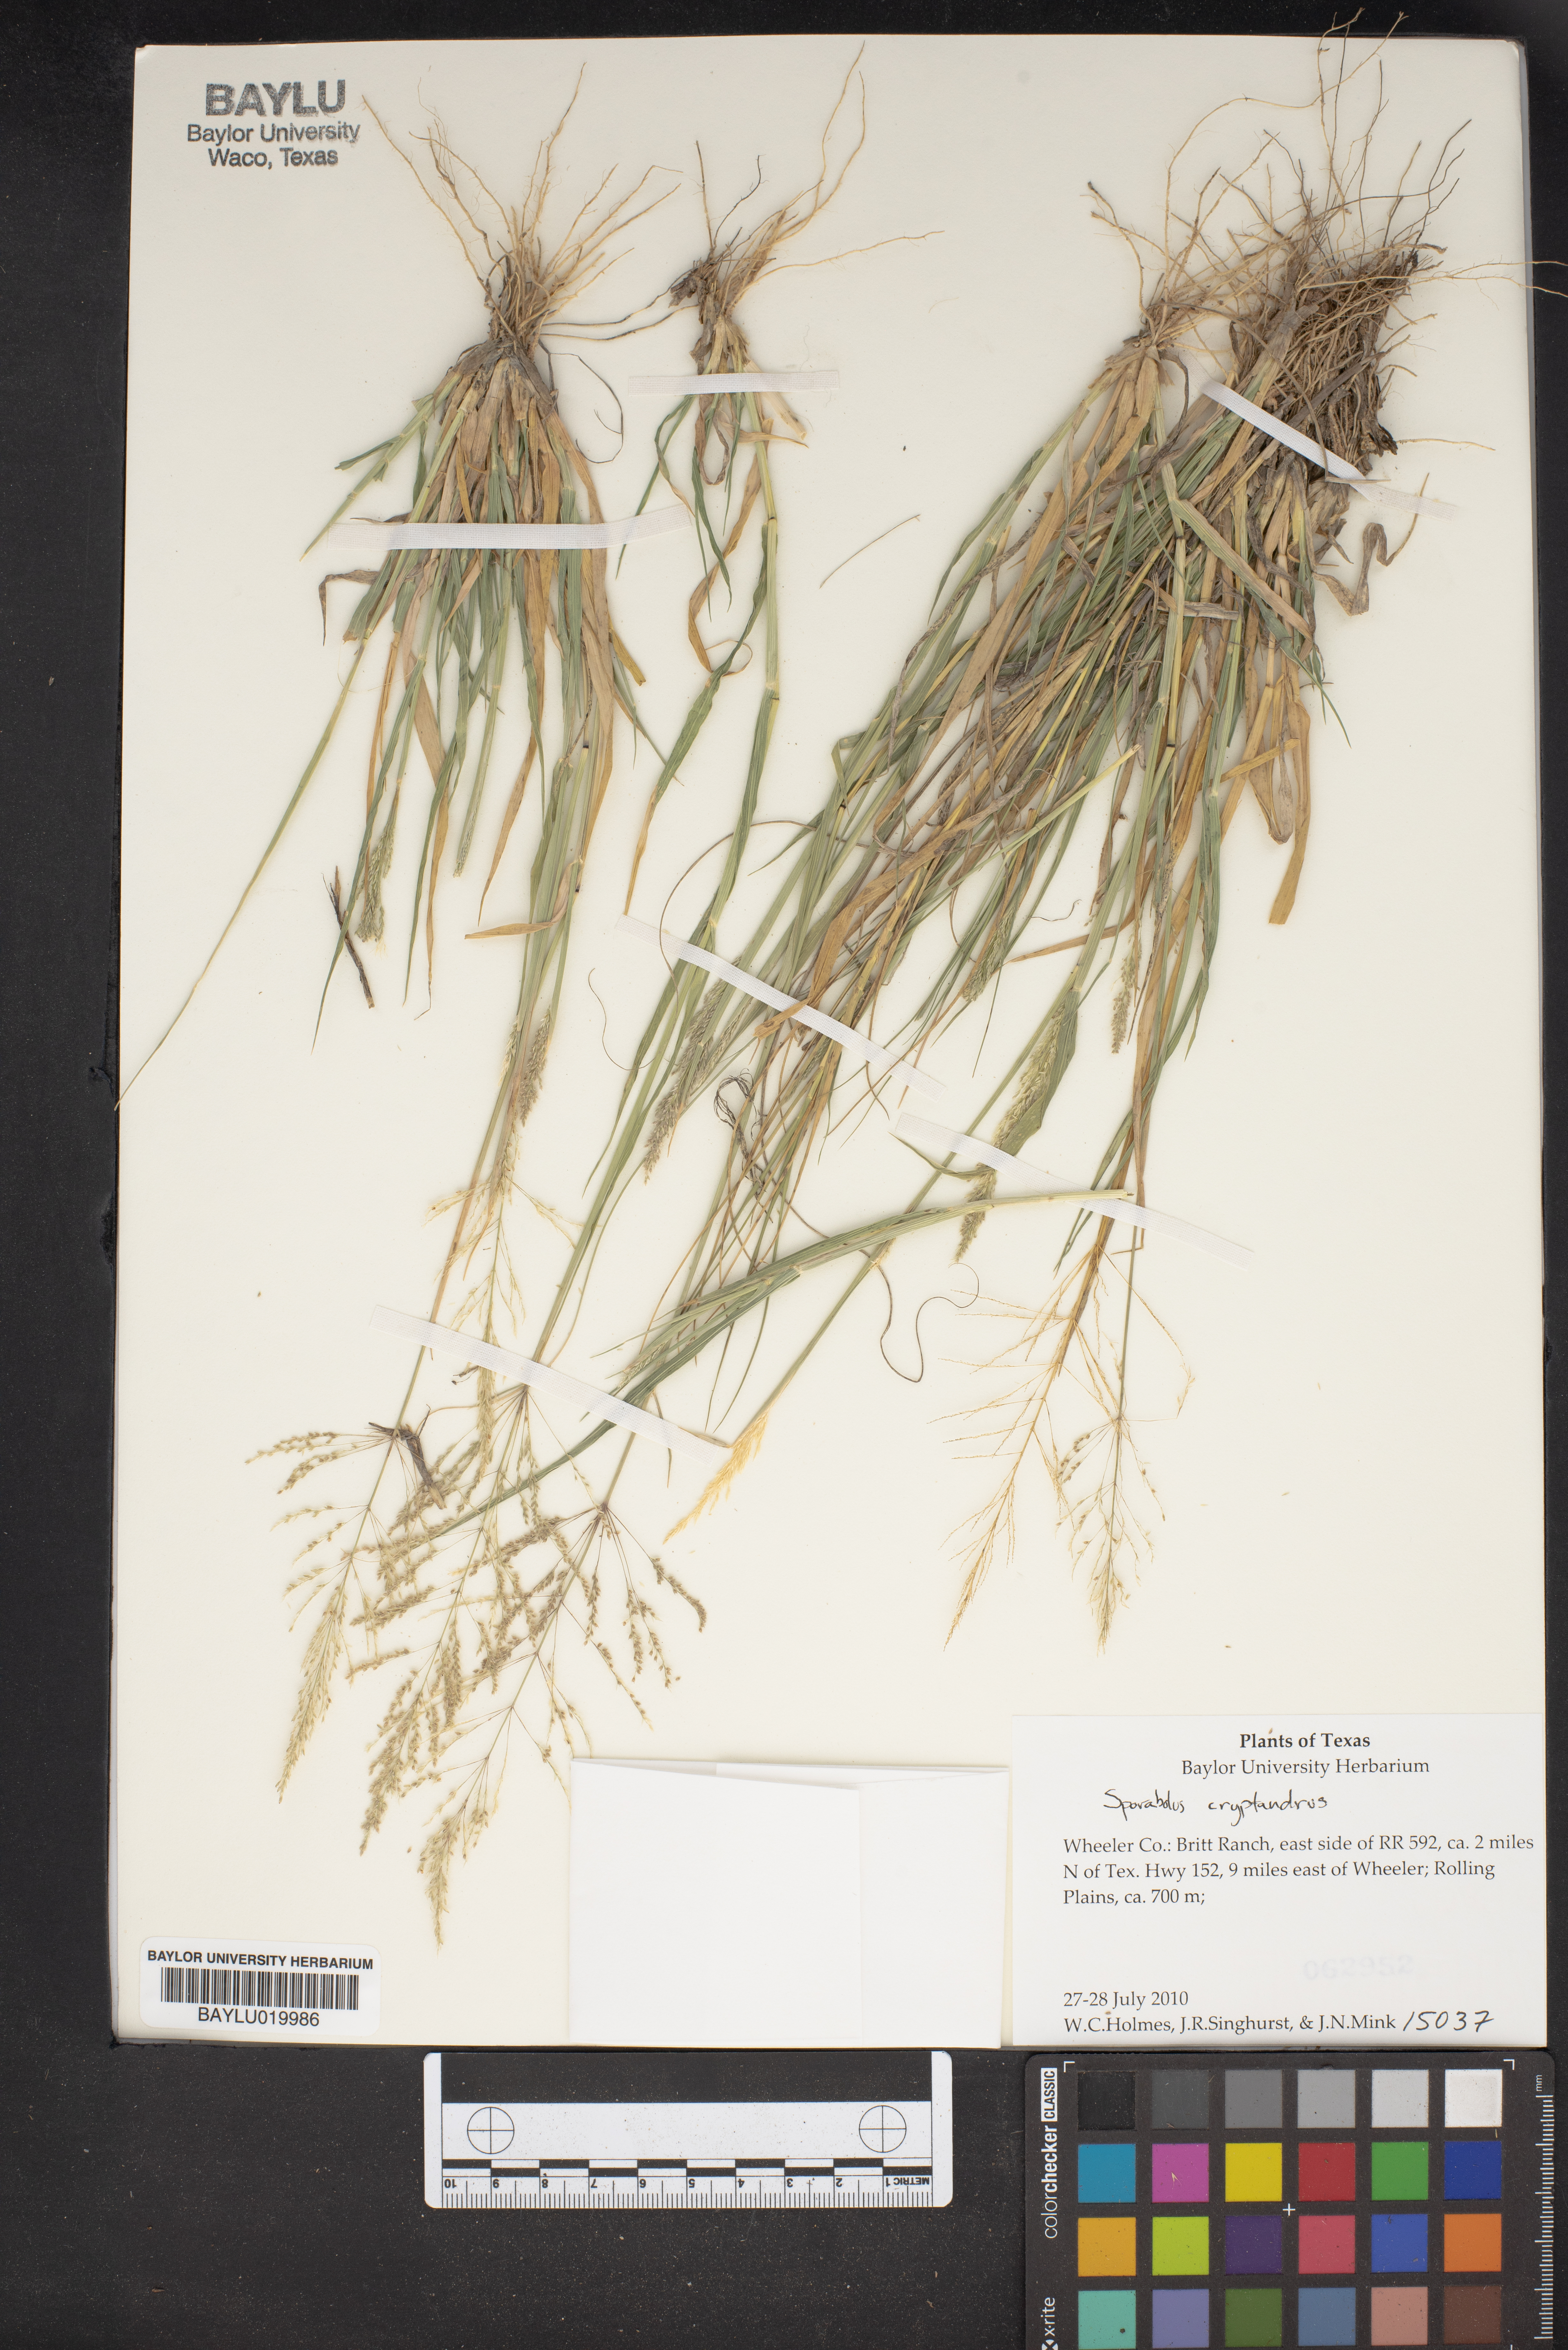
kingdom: Plantae
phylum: Tracheophyta
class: Liliopsida
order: Poales
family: Poaceae
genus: Sporobolus
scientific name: Sporobolus cryptandrus
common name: Sand dropseed
